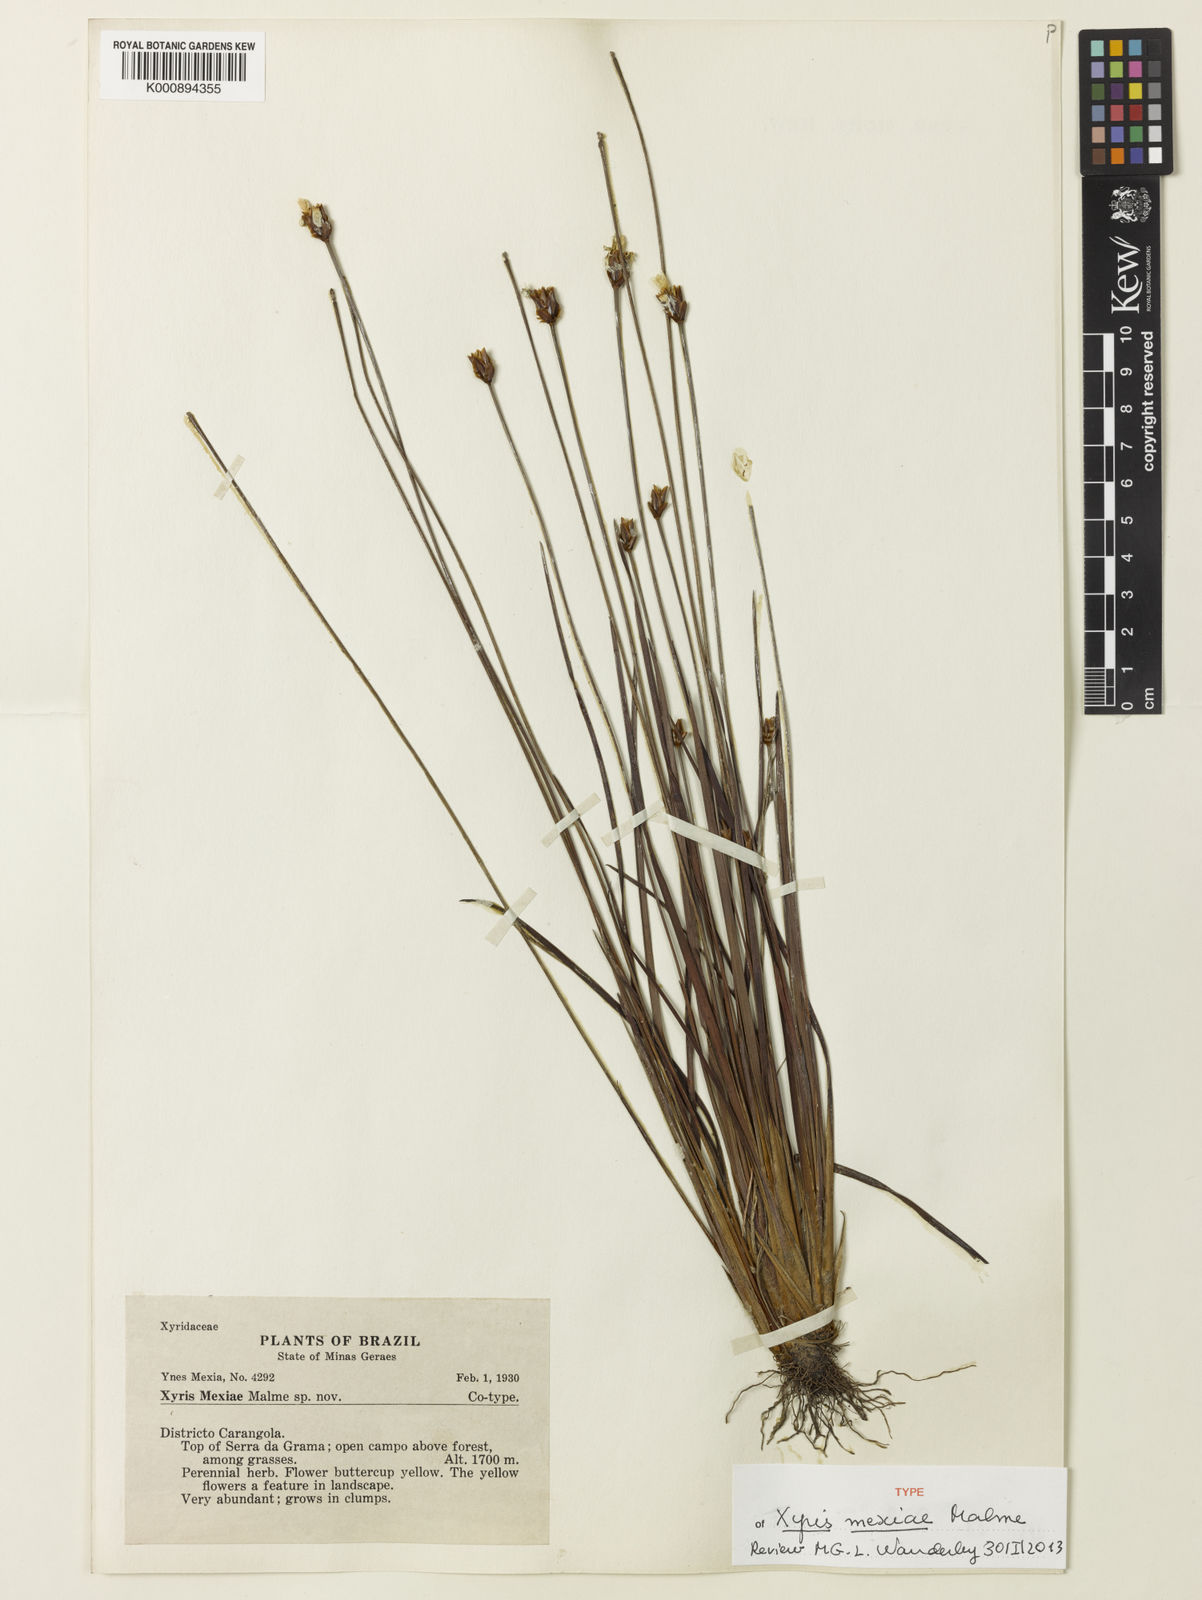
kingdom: Plantae
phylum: Tracheophyta
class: Liliopsida
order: Poales
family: Xyridaceae
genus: Xyris
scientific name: Xyris mexiae
